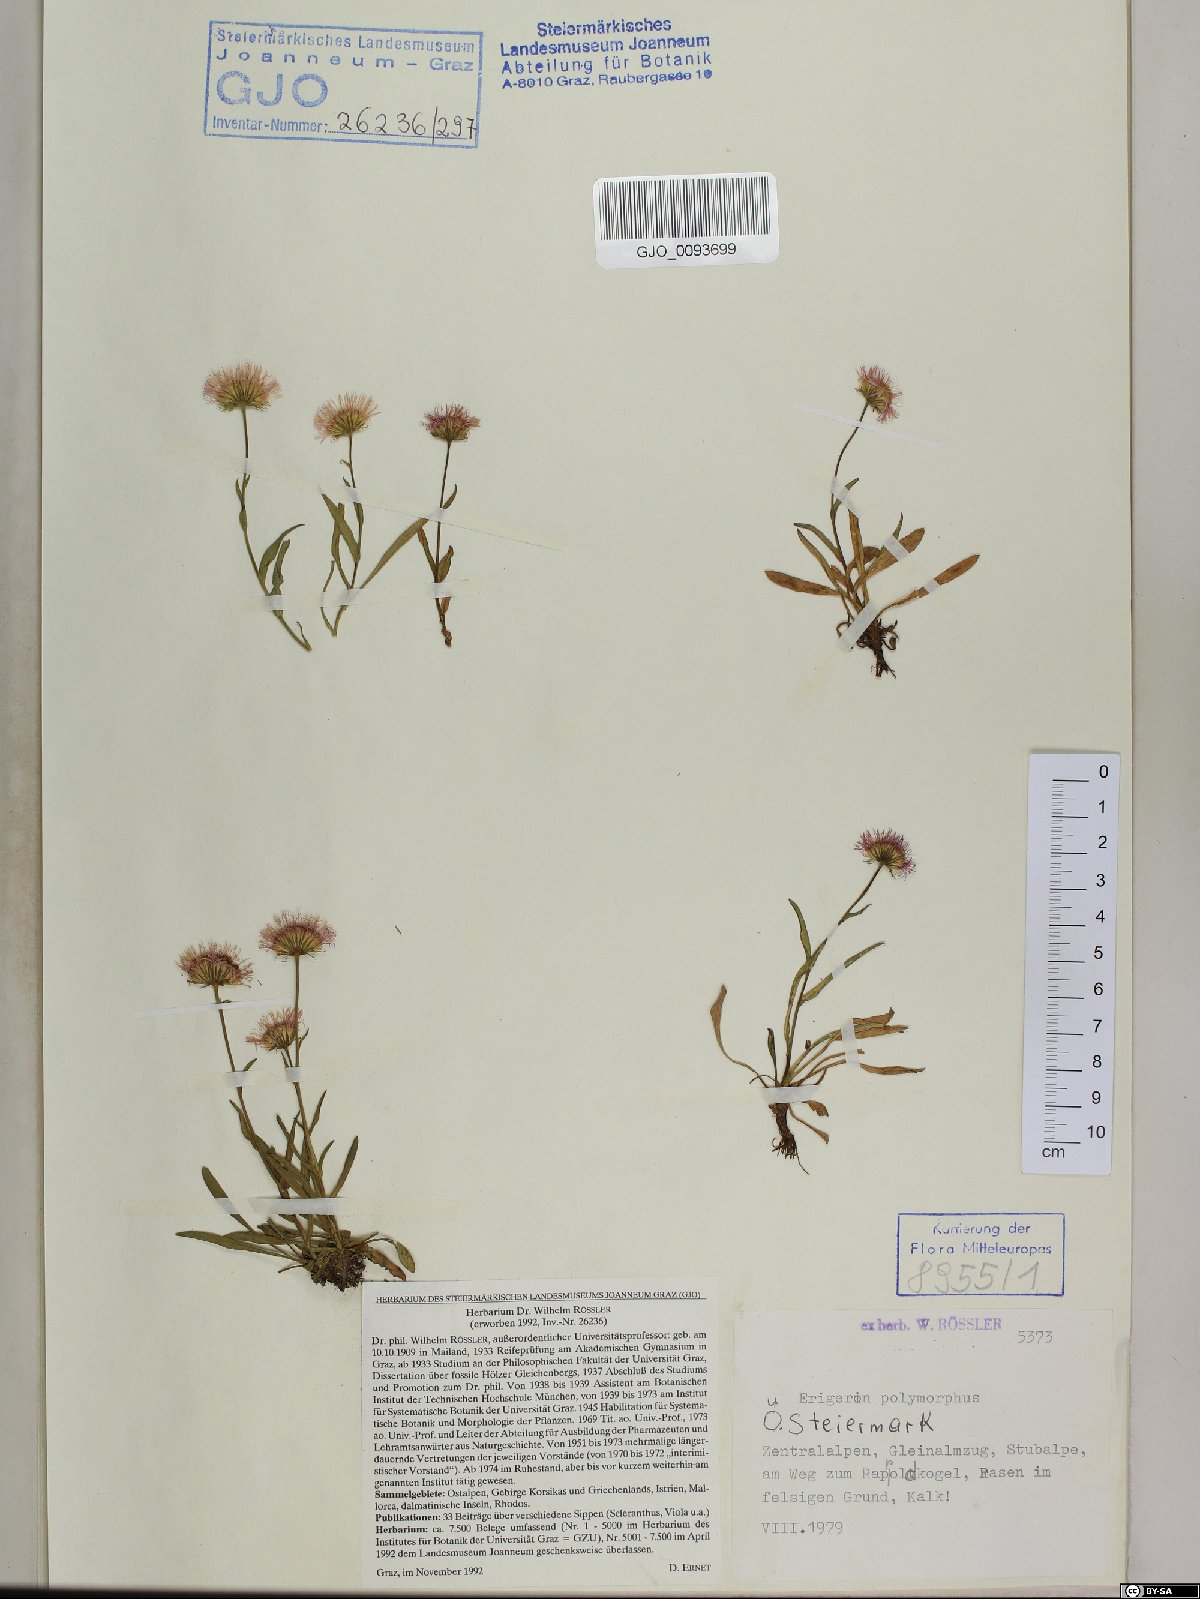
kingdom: Plantae
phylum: Tracheophyta
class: Magnoliopsida
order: Asterales
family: Asteraceae
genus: Erigeron
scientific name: Erigeron alpinus
